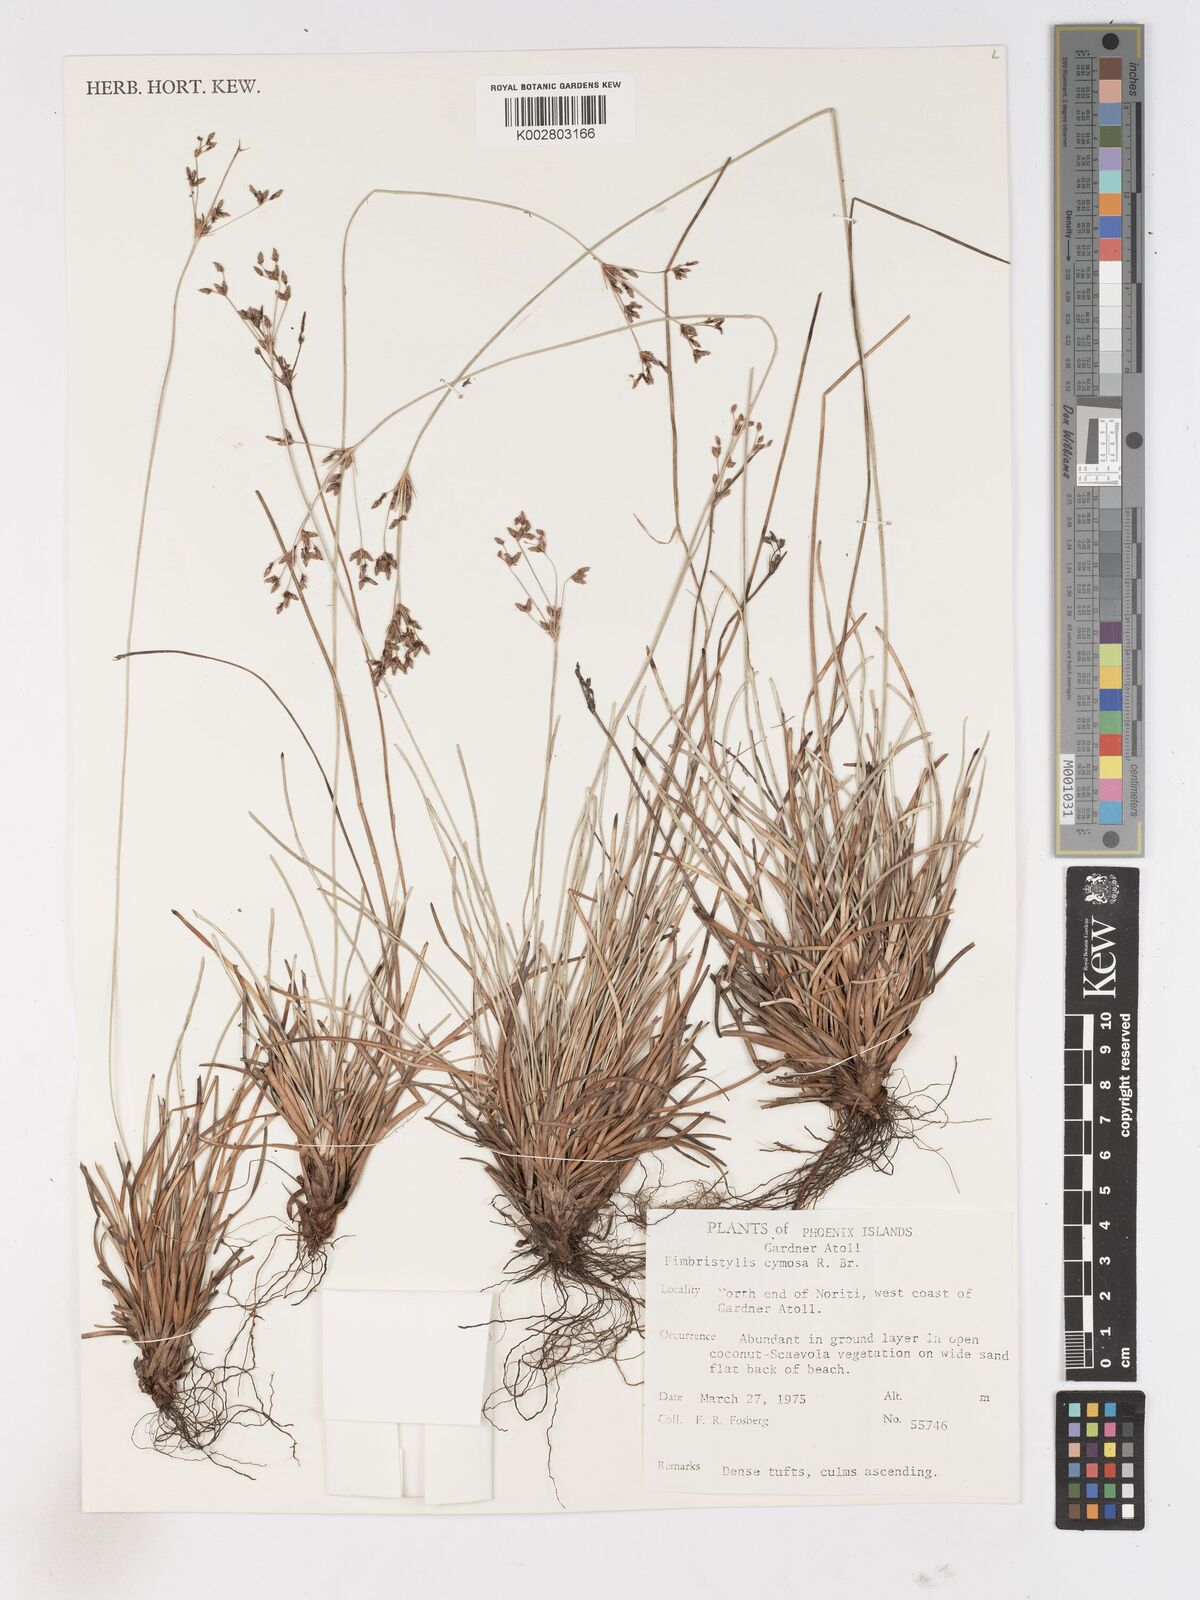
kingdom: Plantae
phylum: Tracheophyta
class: Liliopsida
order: Poales
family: Cyperaceae
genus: Fimbristylis
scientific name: Fimbristylis cymosa
